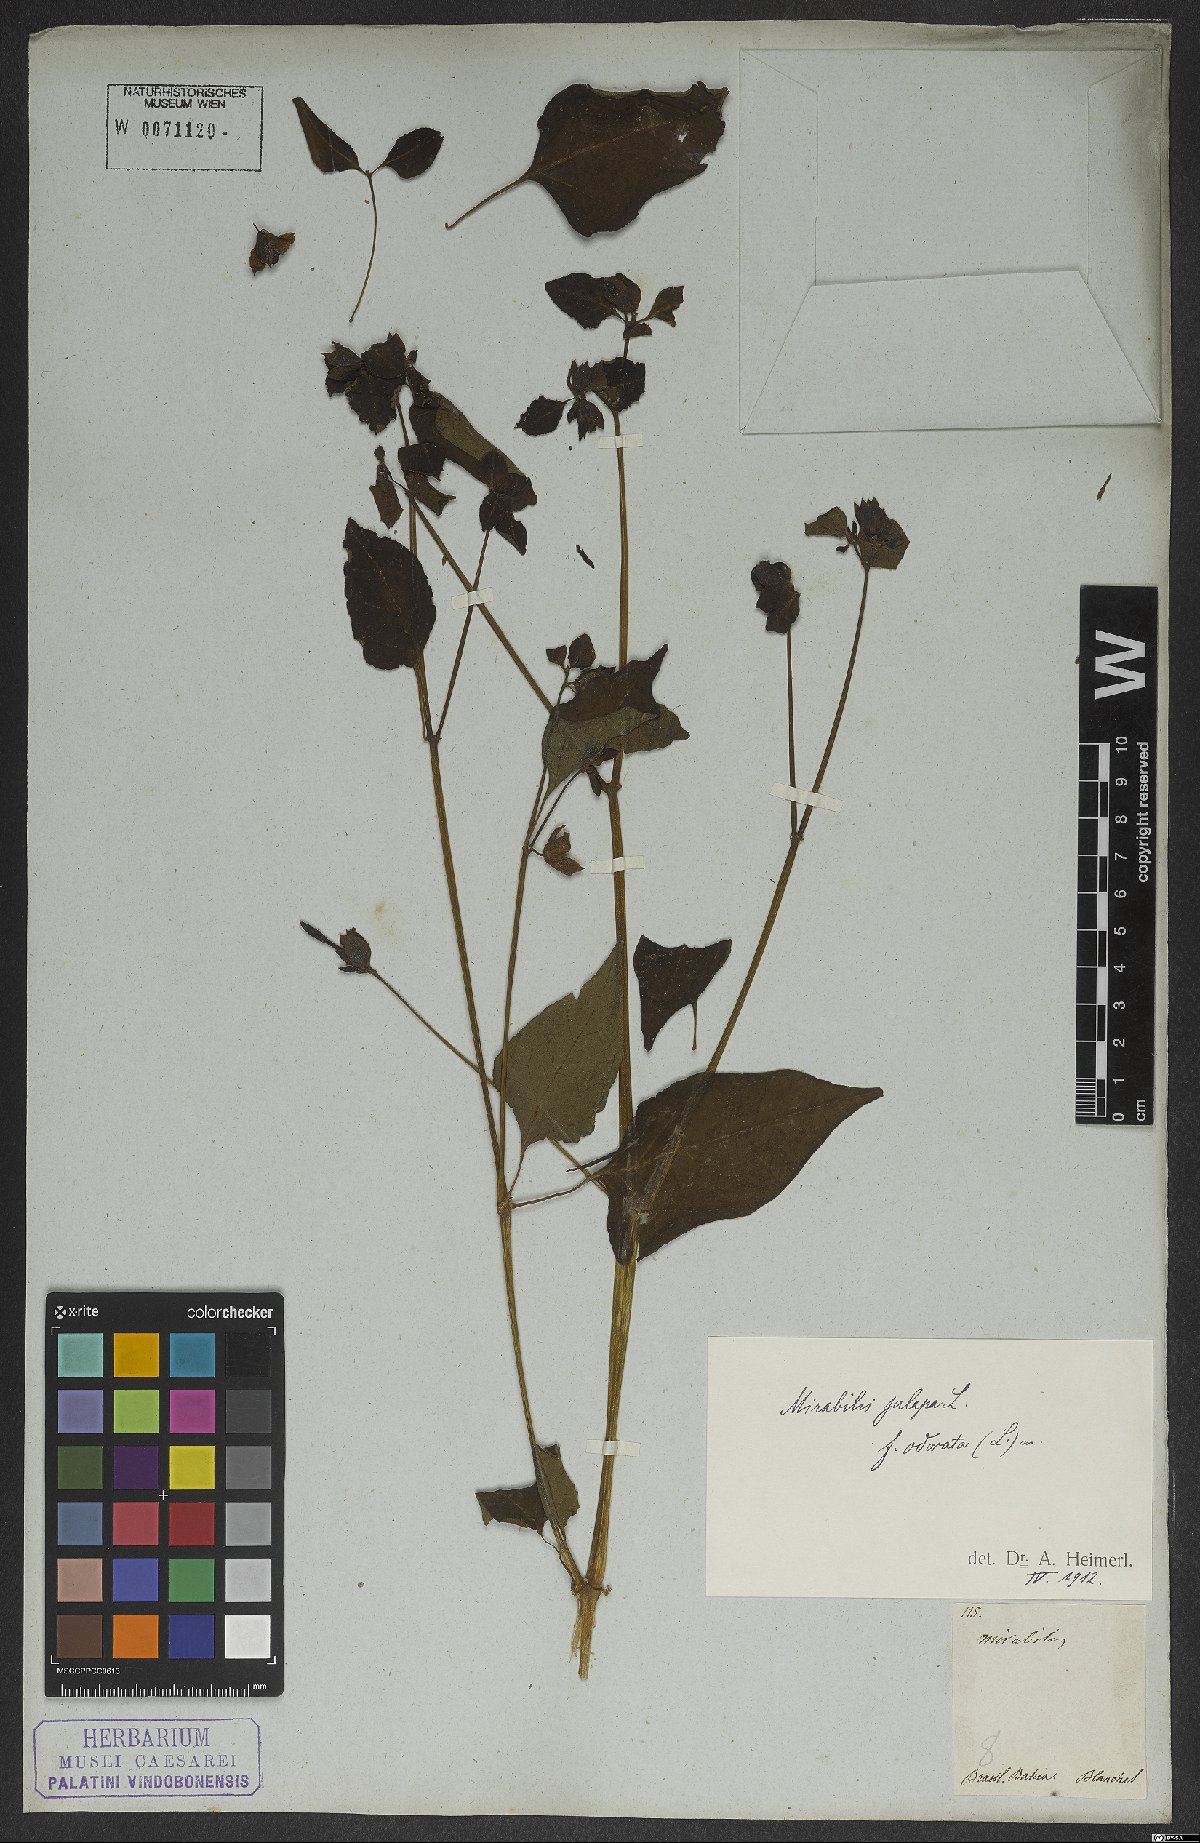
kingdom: Plantae
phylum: Tracheophyta
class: Magnoliopsida
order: Caryophyllales
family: Nyctaginaceae
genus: Mirabilis
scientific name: Mirabilis jalapa
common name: Marvel-of-peru
